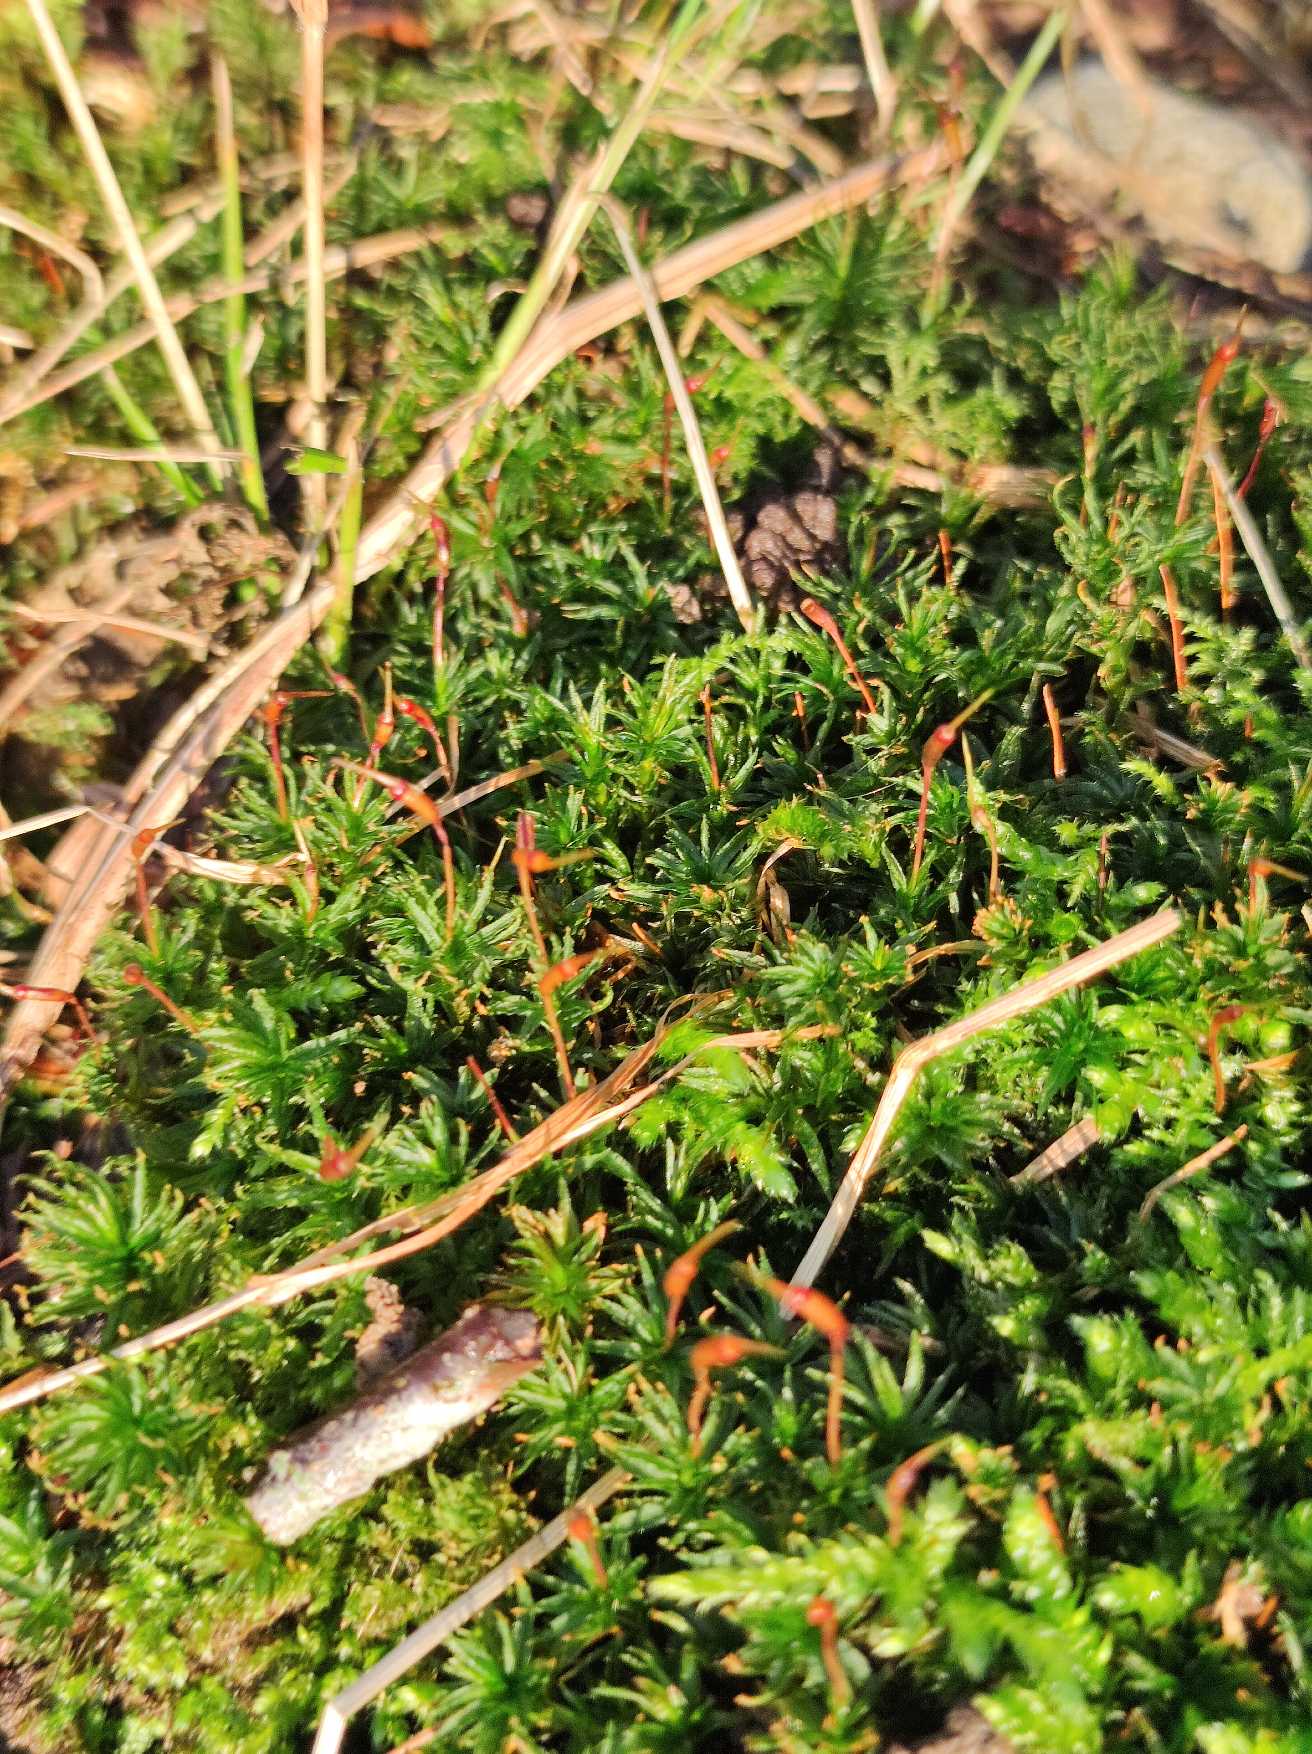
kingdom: Plantae
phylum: Bryophyta
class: Polytrichopsida
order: Polytrichales
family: Polytrichaceae
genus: Atrichum
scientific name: Atrichum undulatum
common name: Bølget katrinemos
